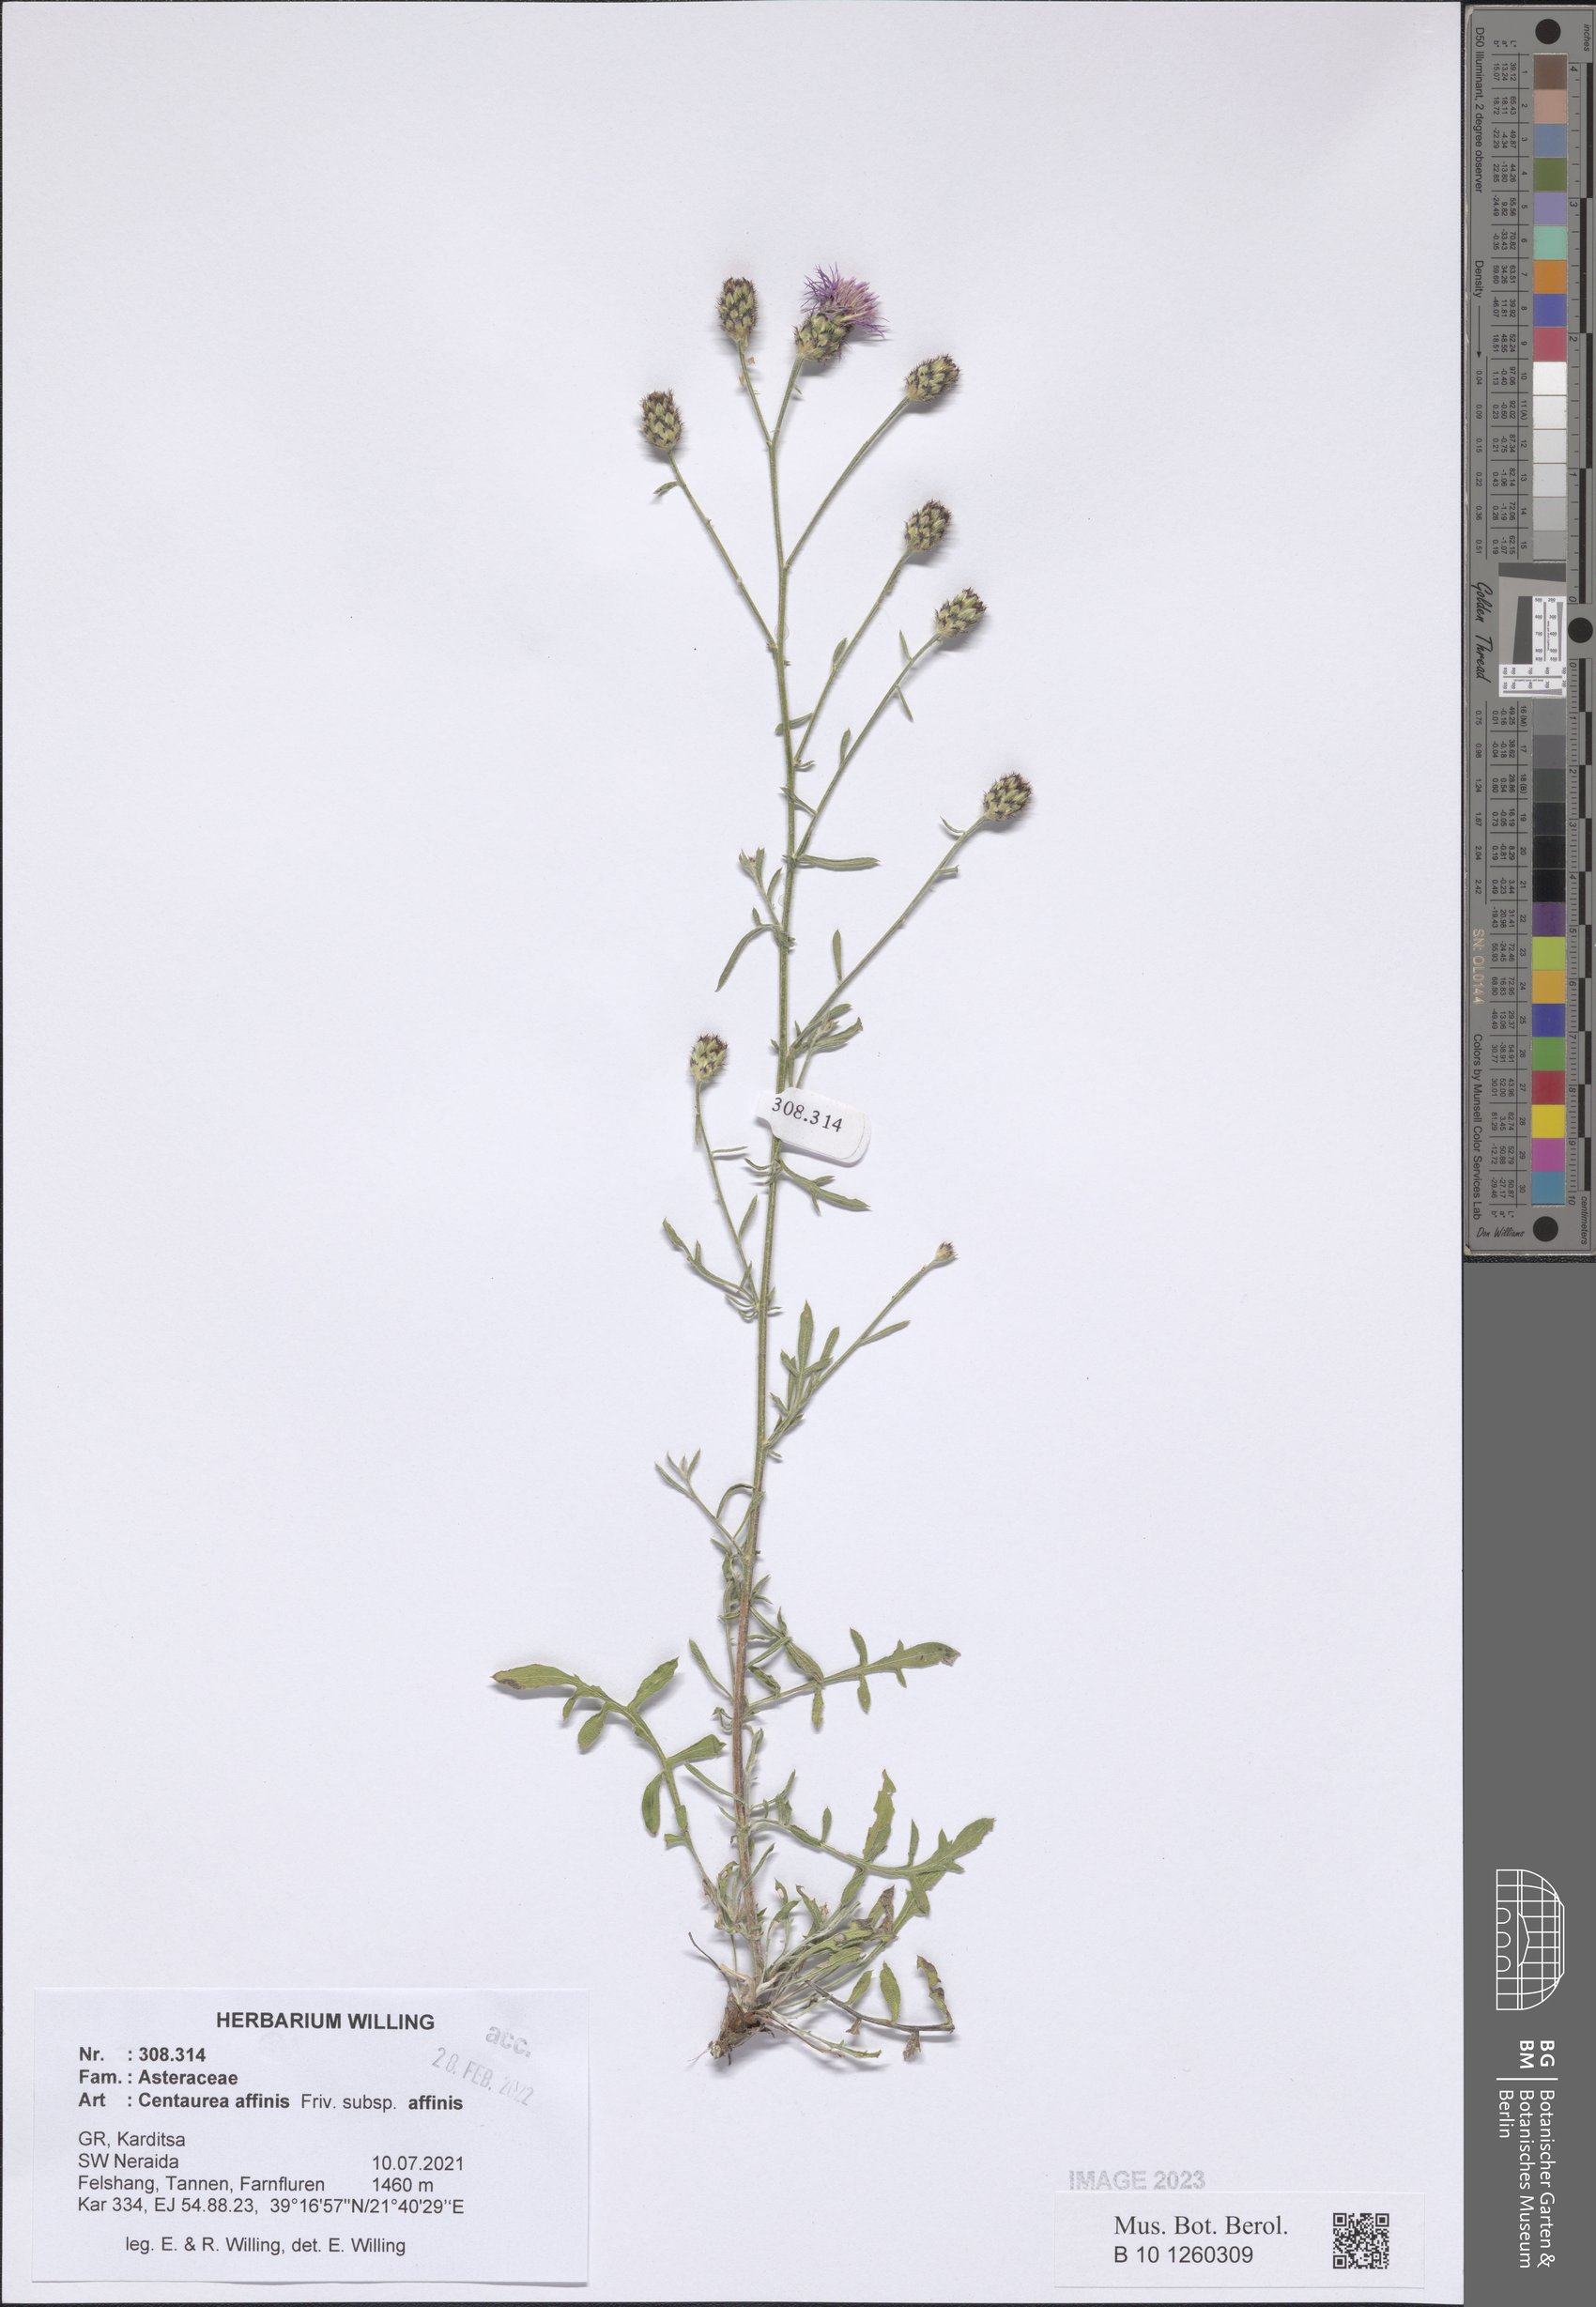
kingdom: Plantae
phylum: Tracheophyta
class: Magnoliopsida
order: Asterales
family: Asteraceae
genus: Centaurea
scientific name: Centaurea affinis
